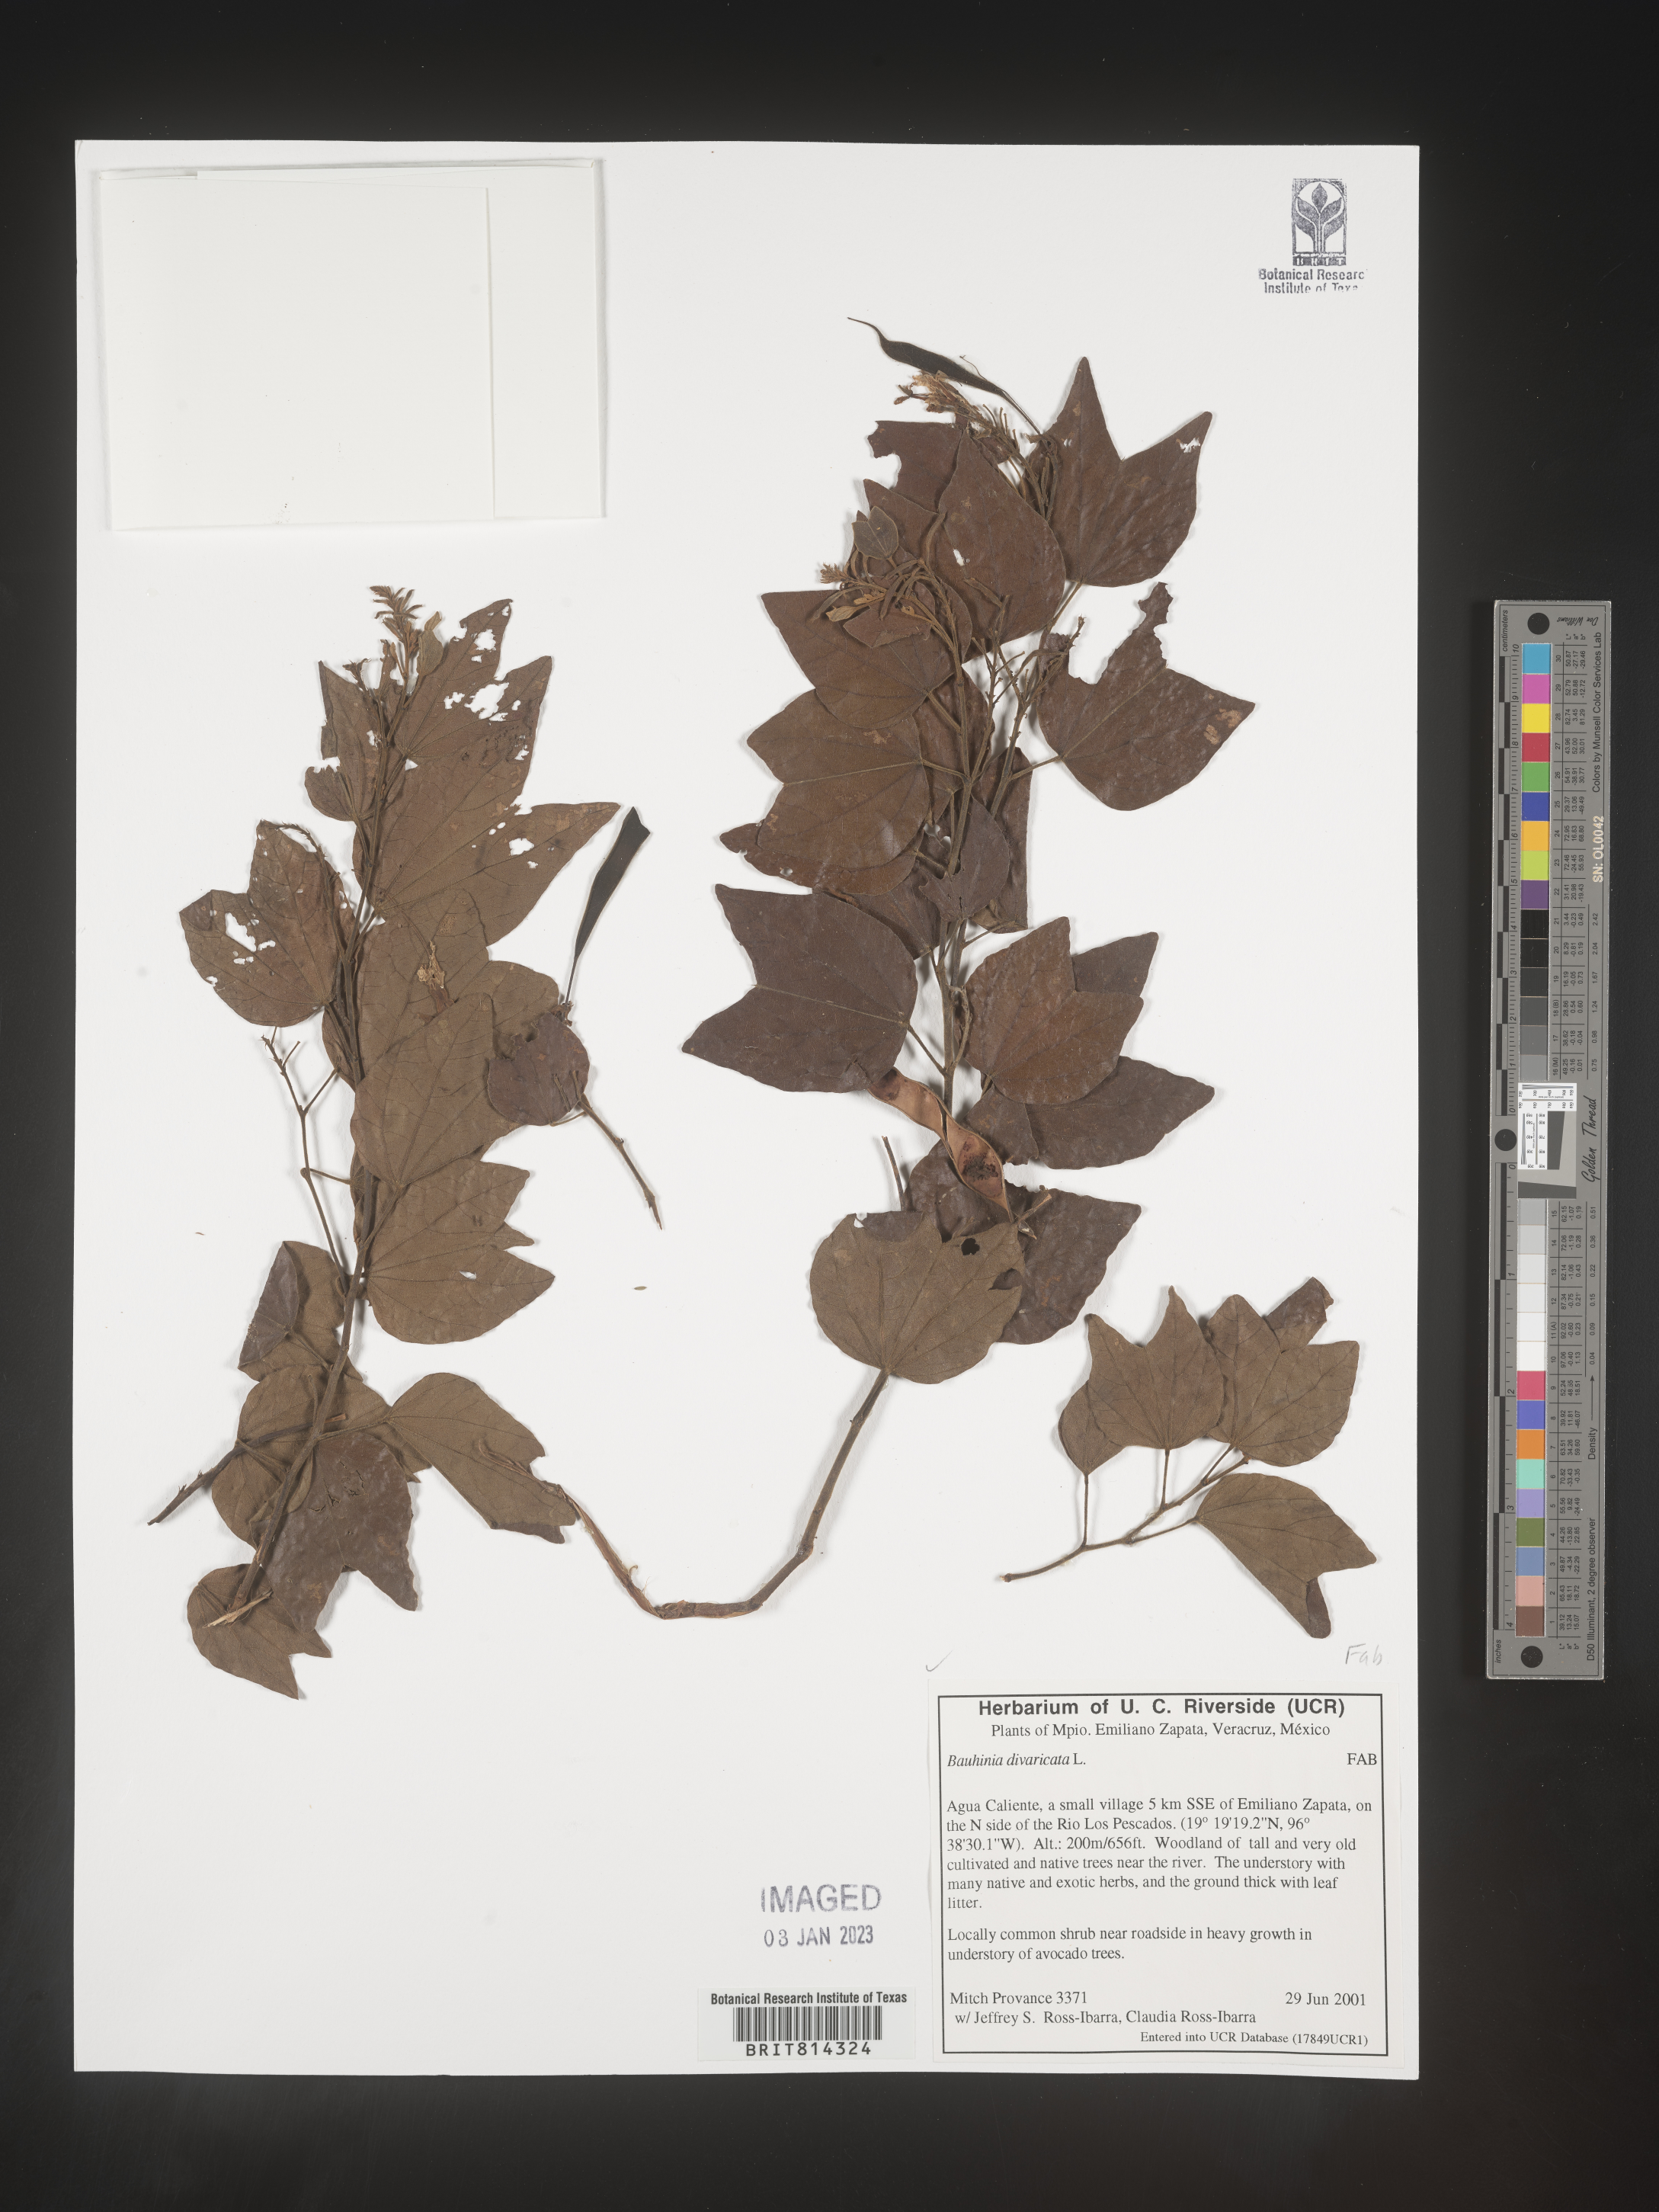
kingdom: Plantae
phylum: Tracheophyta
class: Magnoliopsida
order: Fabales
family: Fabaceae
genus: Bauhinia
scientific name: Bauhinia
